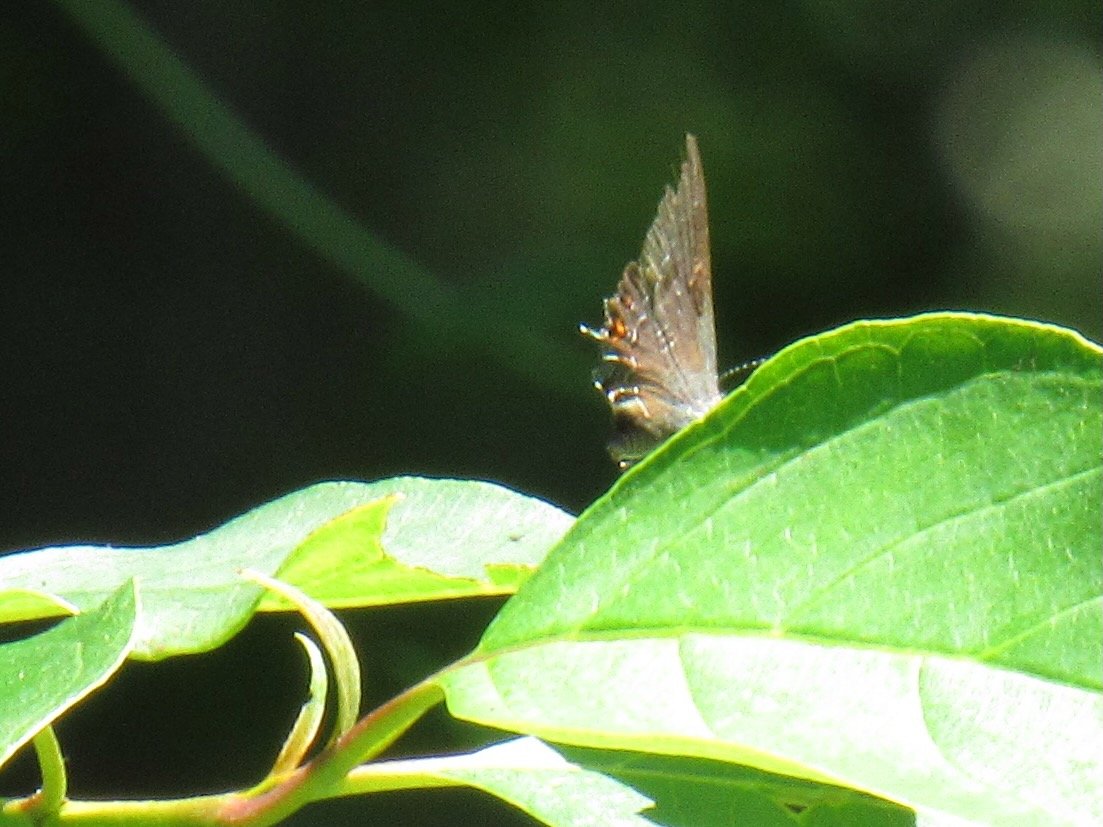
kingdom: Animalia
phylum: Arthropoda
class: Insecta
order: Lepidoptera
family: Lycaenidae
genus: Satyrium
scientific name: Satyrium calanus
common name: Banded Hairstreak
